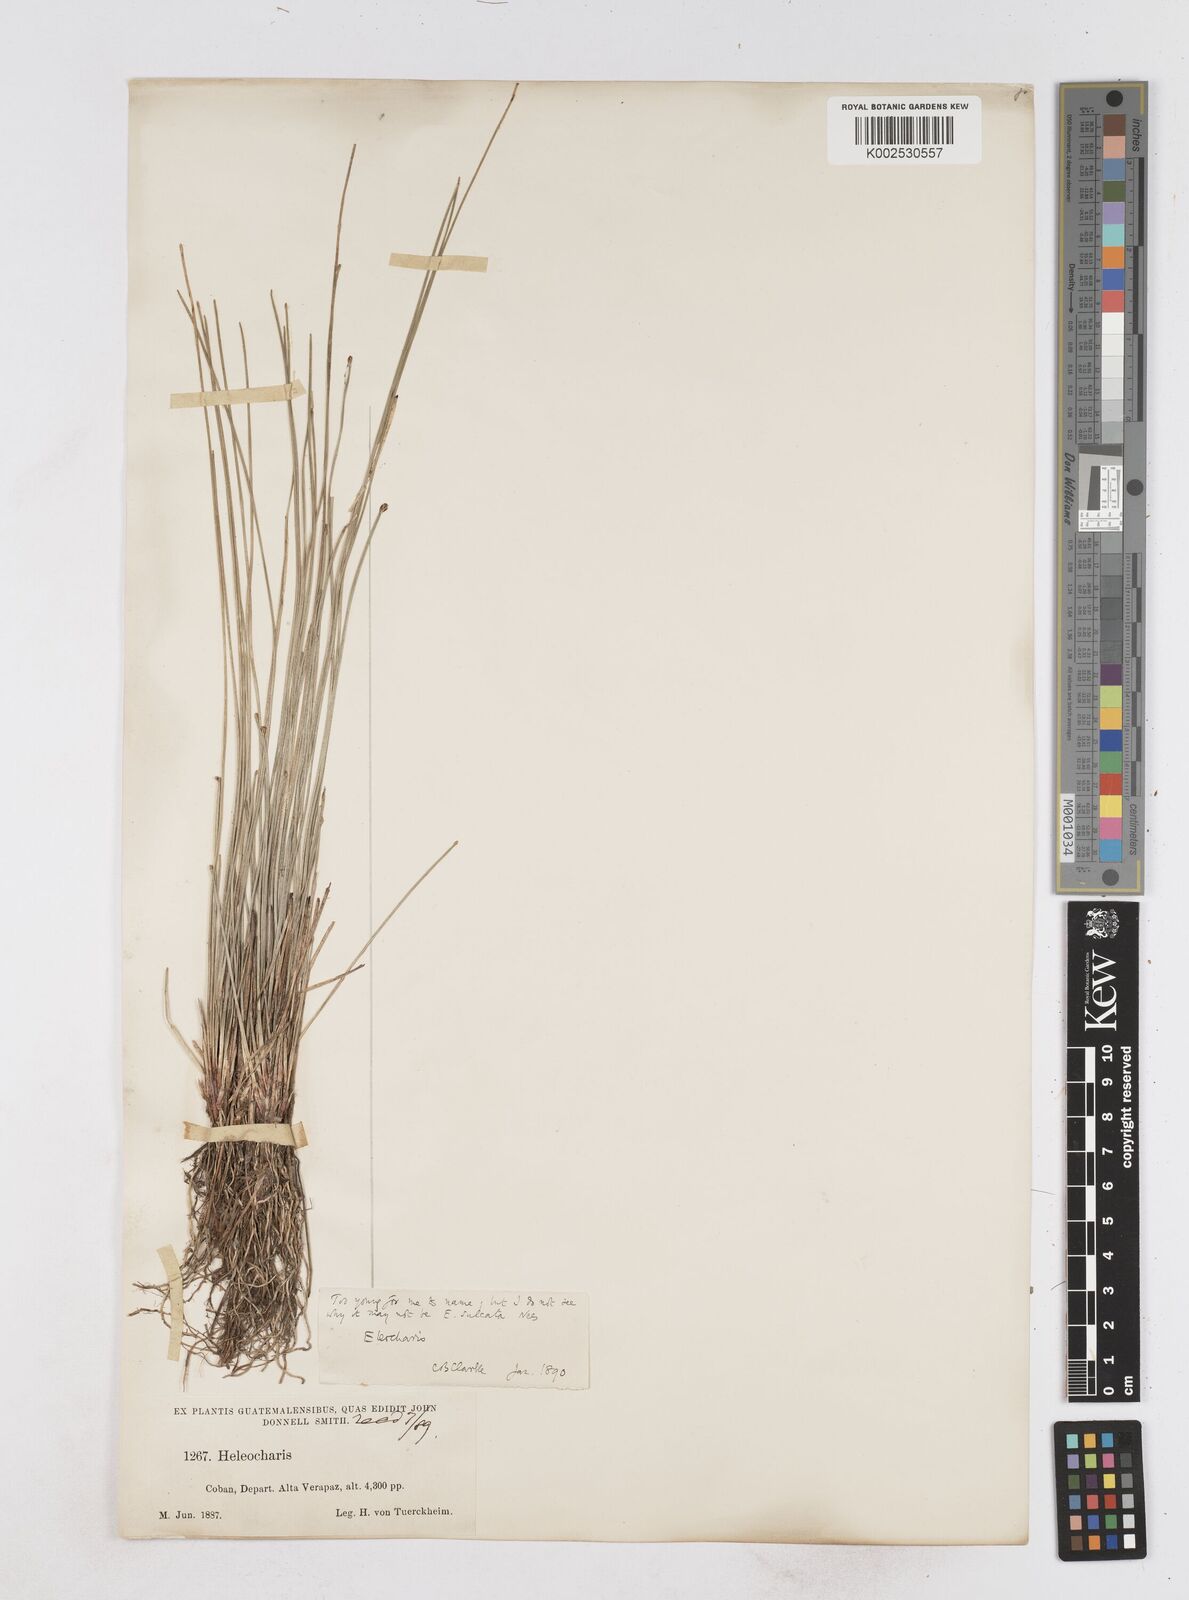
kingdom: Plantae
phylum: Tracheophyta
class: Liliopsida
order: Poales
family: Cyperaceae
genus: Eleocharis
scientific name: Eleocharis filiculmis
